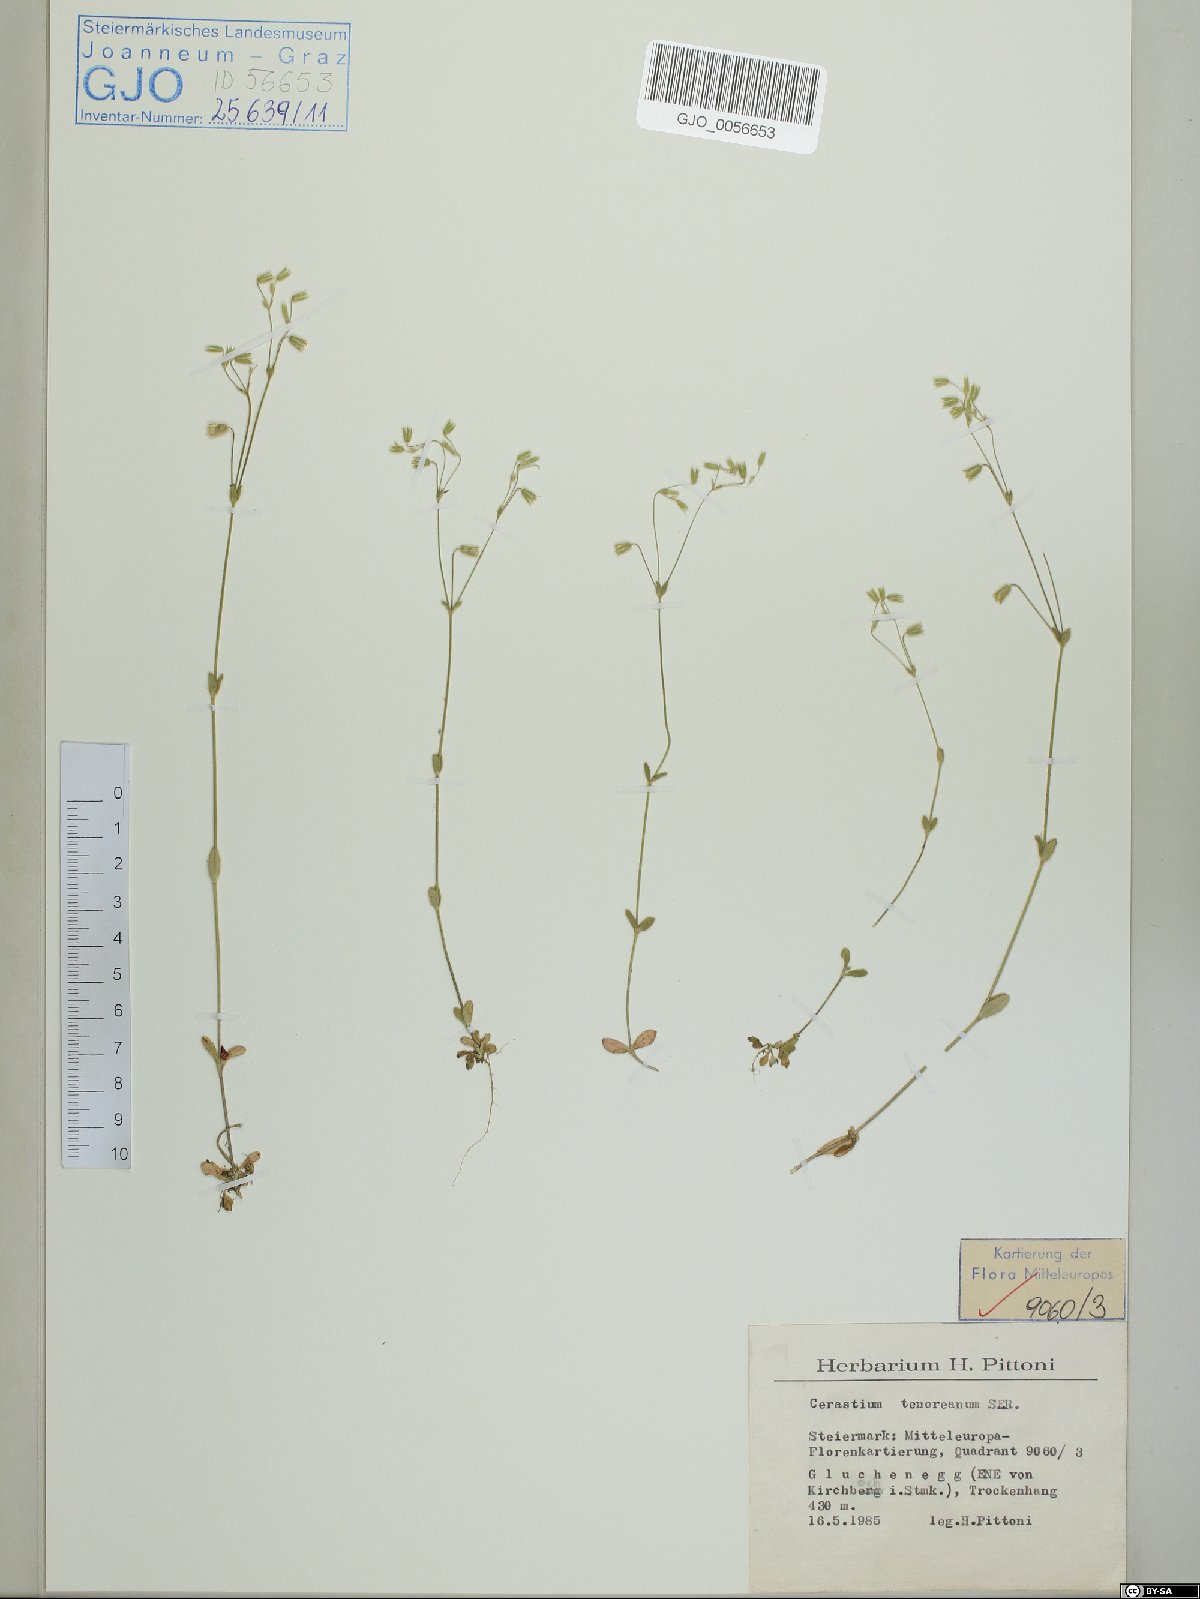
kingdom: Plantae
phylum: Tracheophyta
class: Magnoliopsida
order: Caryophyllales
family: Caryophyllaceae
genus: Cerastium
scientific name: Cerastium tenoreanum
